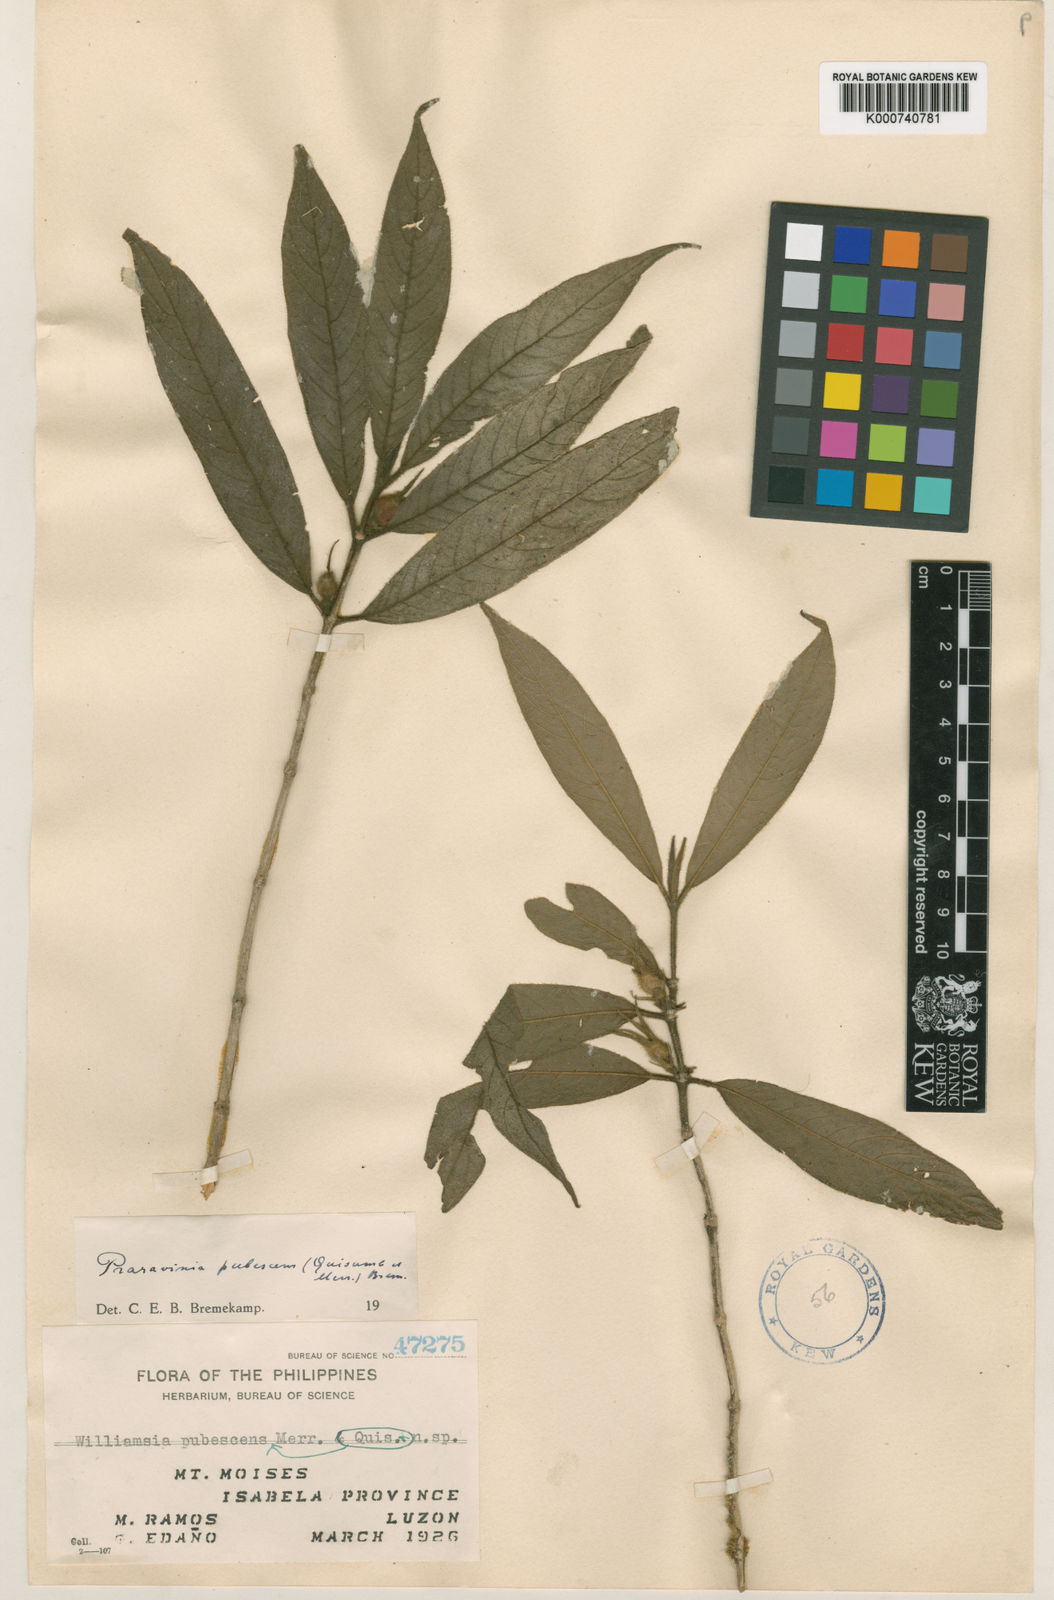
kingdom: Plantae
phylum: Tracheophyta
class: Magnoliopsida
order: Gentianales
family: Rubiaceae
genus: Praravinia
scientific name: Praravinia pubescens
